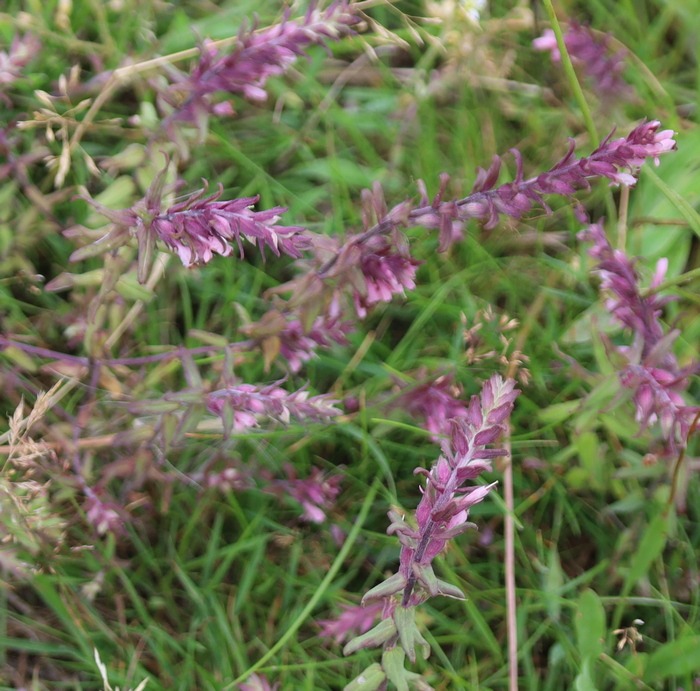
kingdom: Plantae
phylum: Tracheophyta
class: Magnoliopsida
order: Lamiales
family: Orobanchaceae
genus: Odontites
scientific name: Odontites vulgaris
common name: Høst-rødtop
